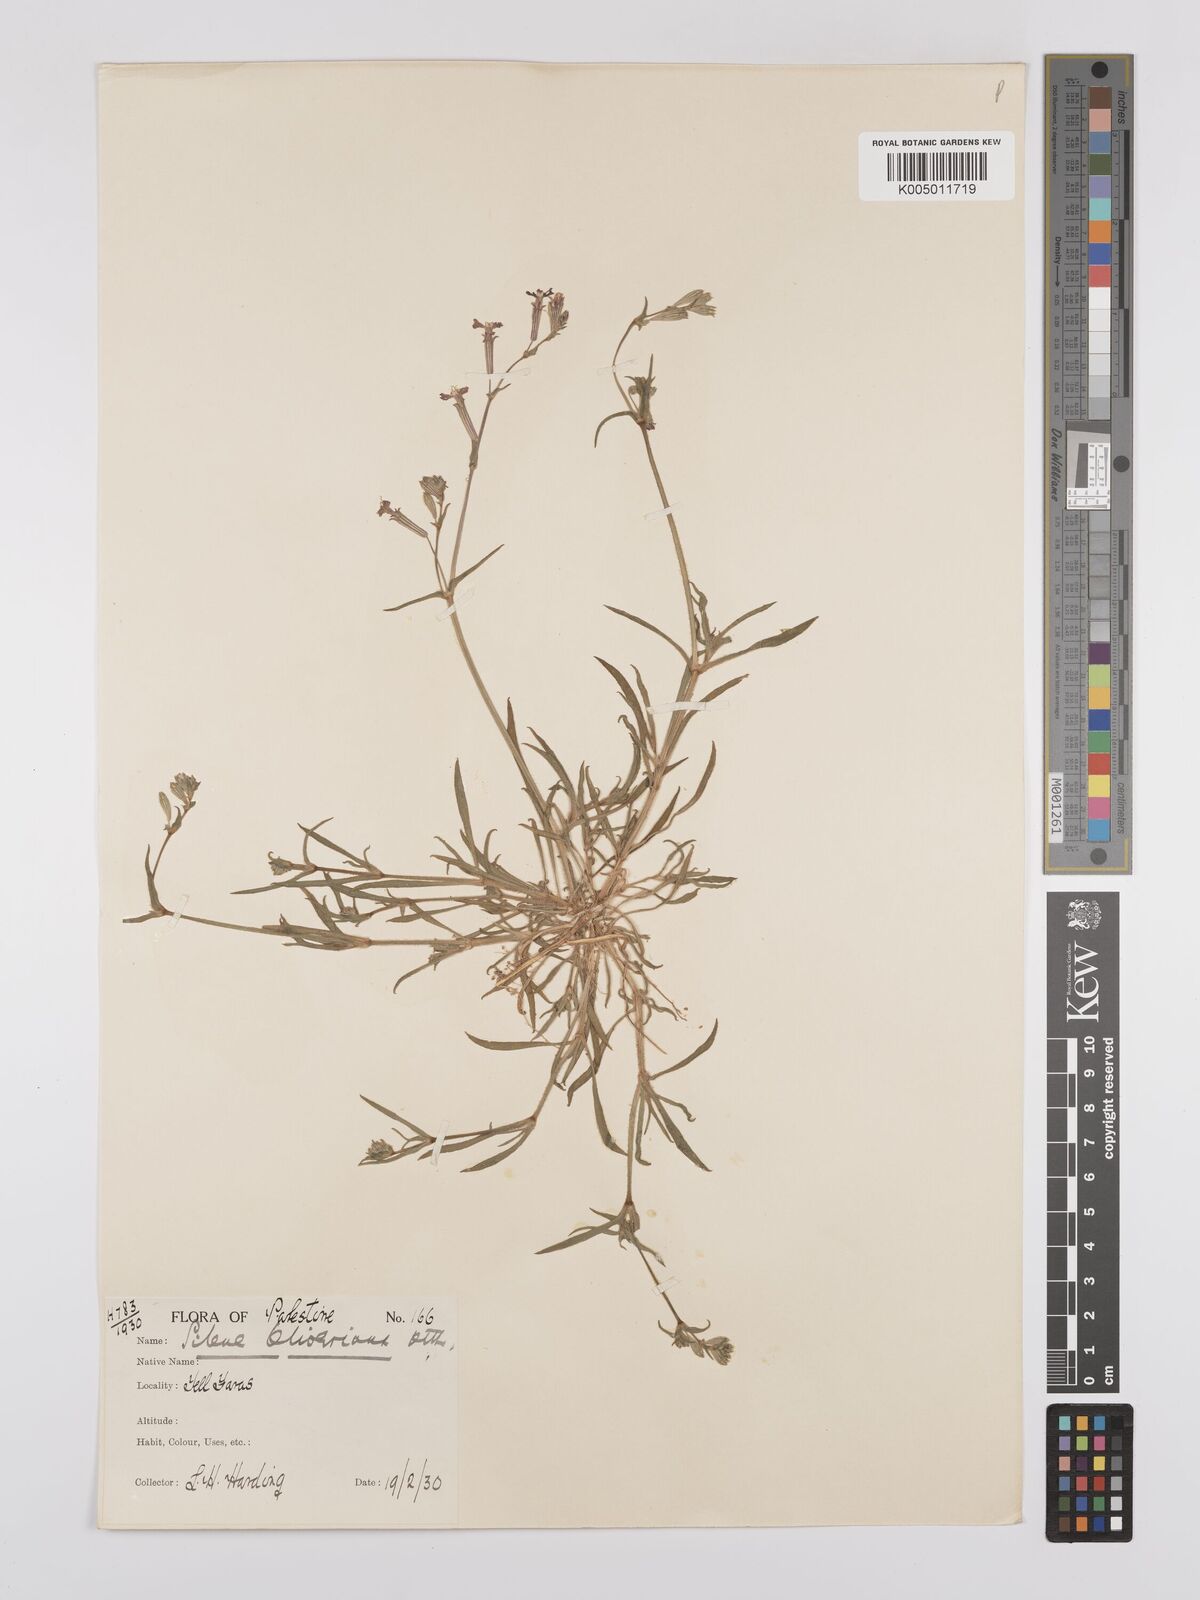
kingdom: Plantae
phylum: Tracheophyta
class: Magnoliopsida
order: Caryophyllales
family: Caryophyllaceae
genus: Silene
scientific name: Silene oliveriana
